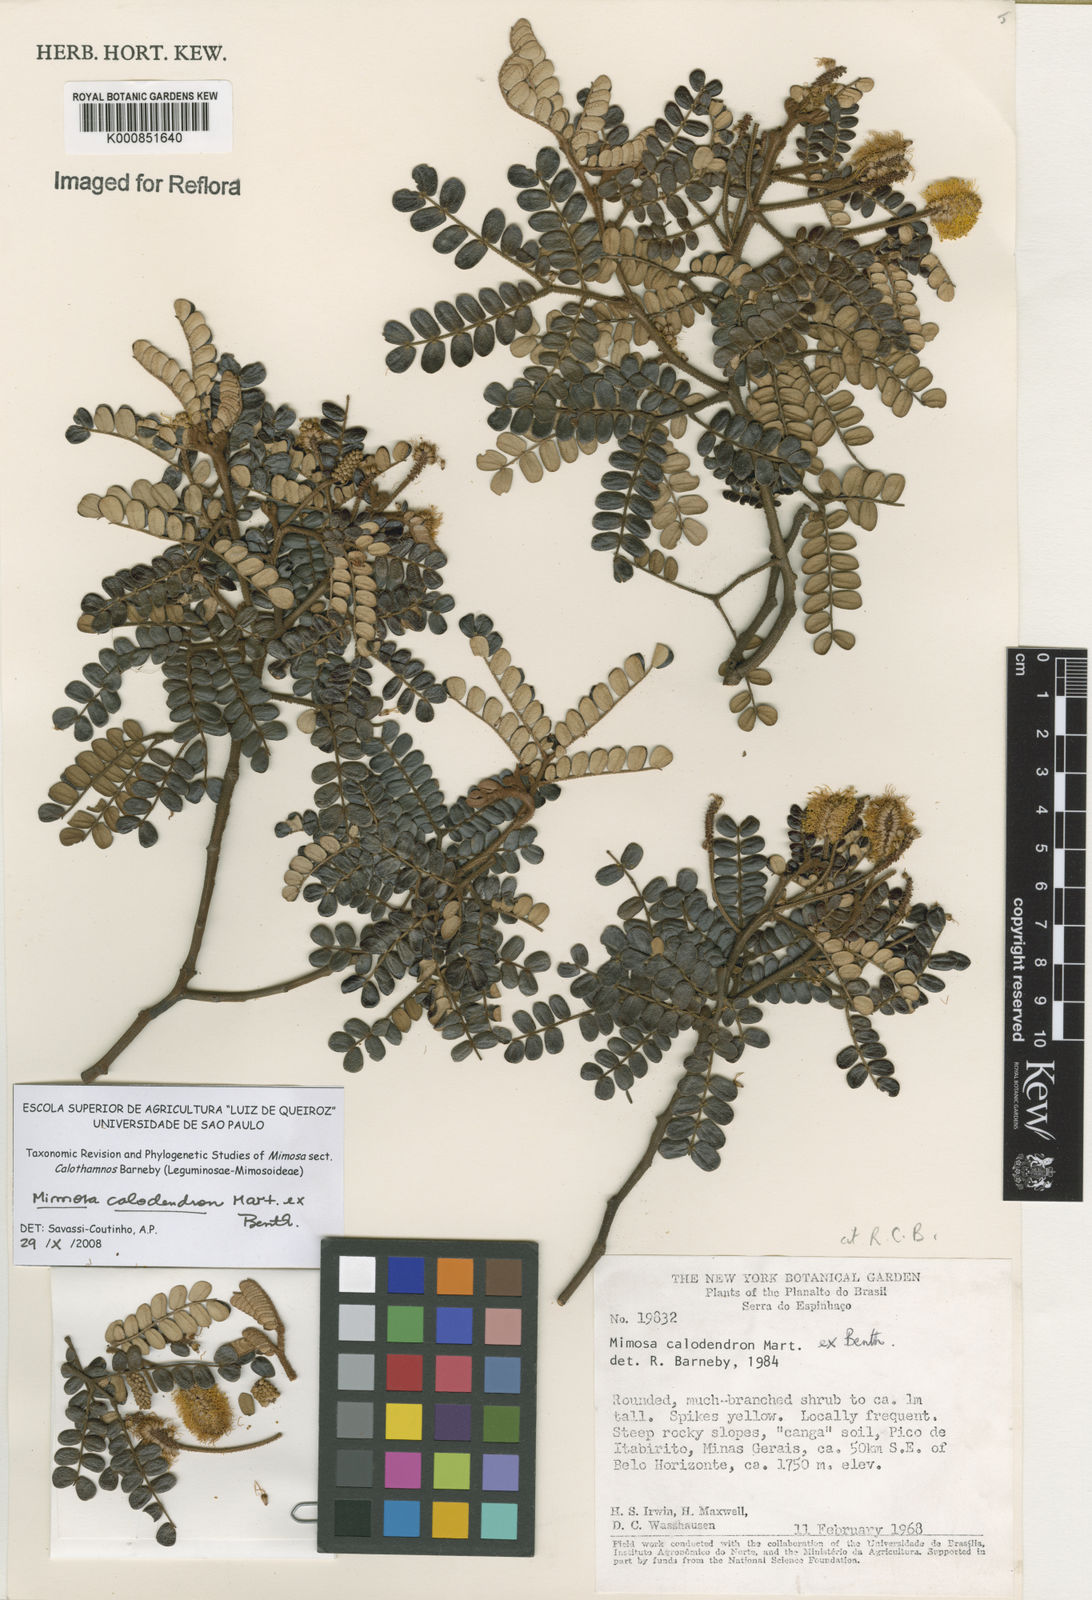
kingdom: Plantae
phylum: Tracheophyta
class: Magnoliopsida
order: Fabales
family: Fabaceae
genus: Mimosa
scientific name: Mimosa calodendron
